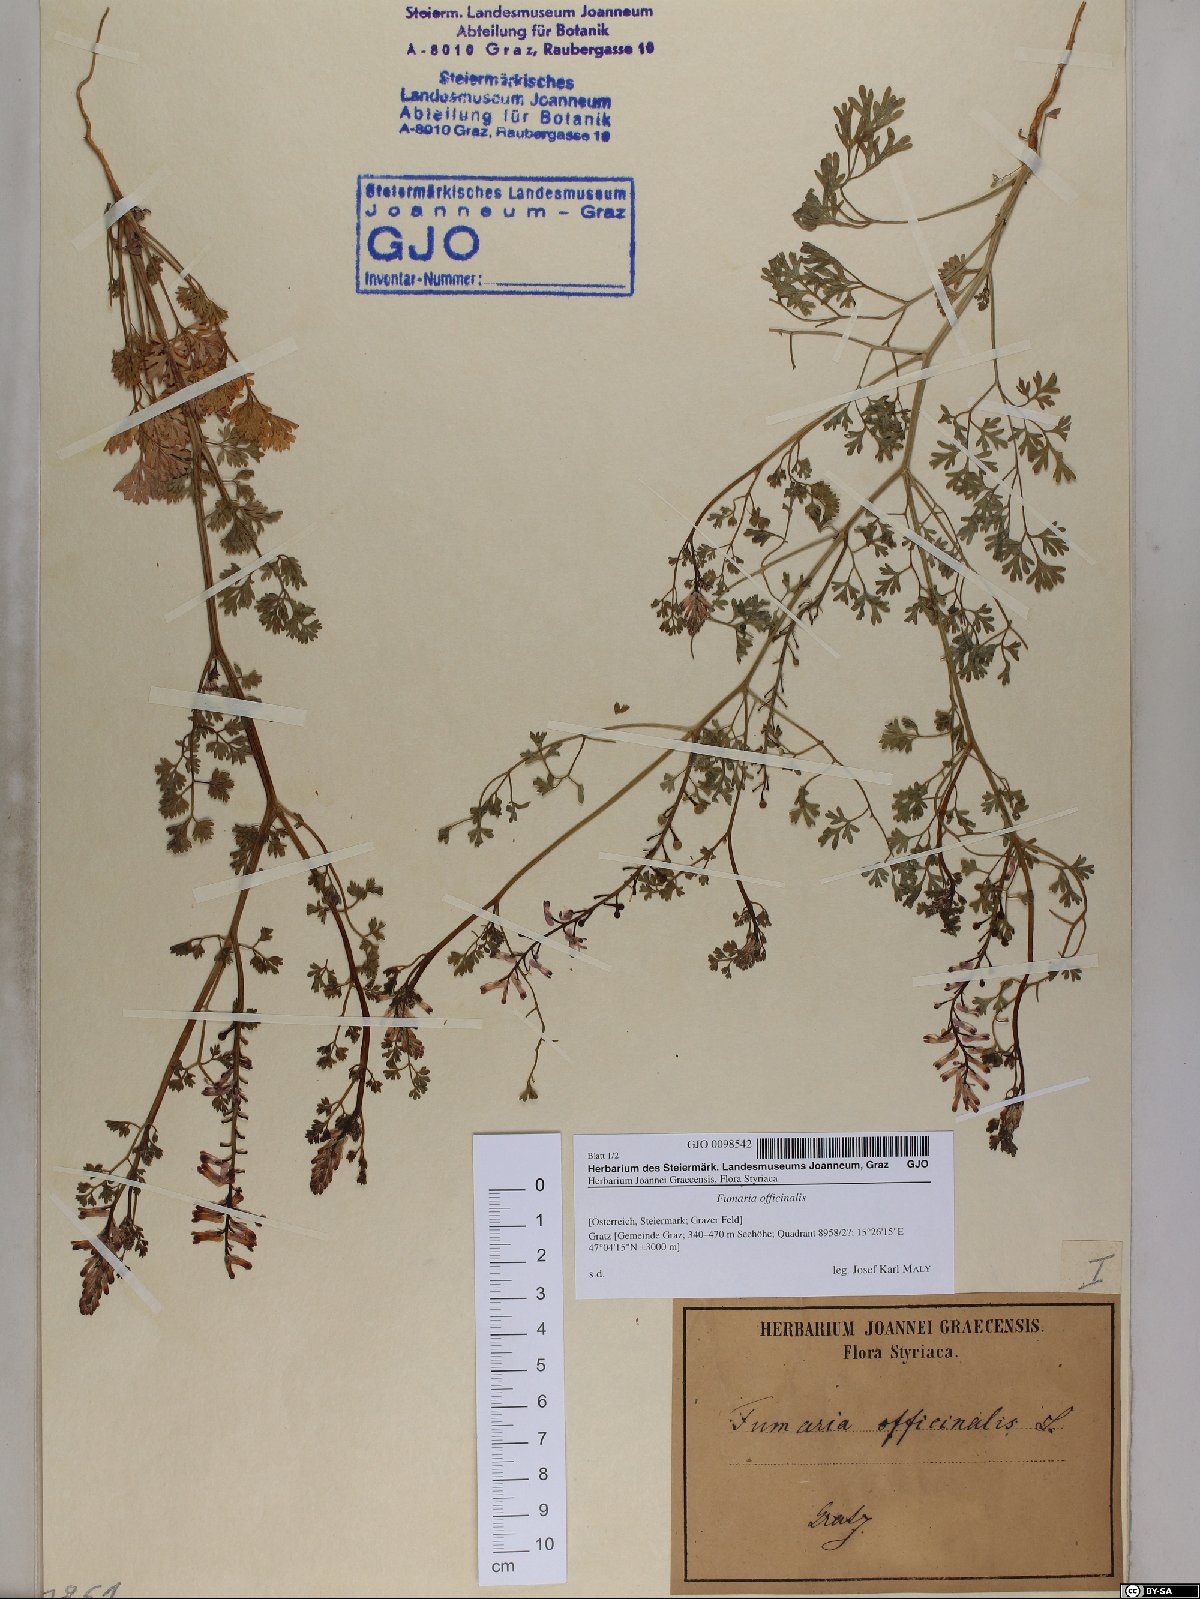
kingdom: Plantae
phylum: Tracheophyta
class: Magnoliopsida
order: Ranunculales
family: Papaveraceae
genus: Fumaria
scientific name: Fumaria officinalis
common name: Common fumitory
